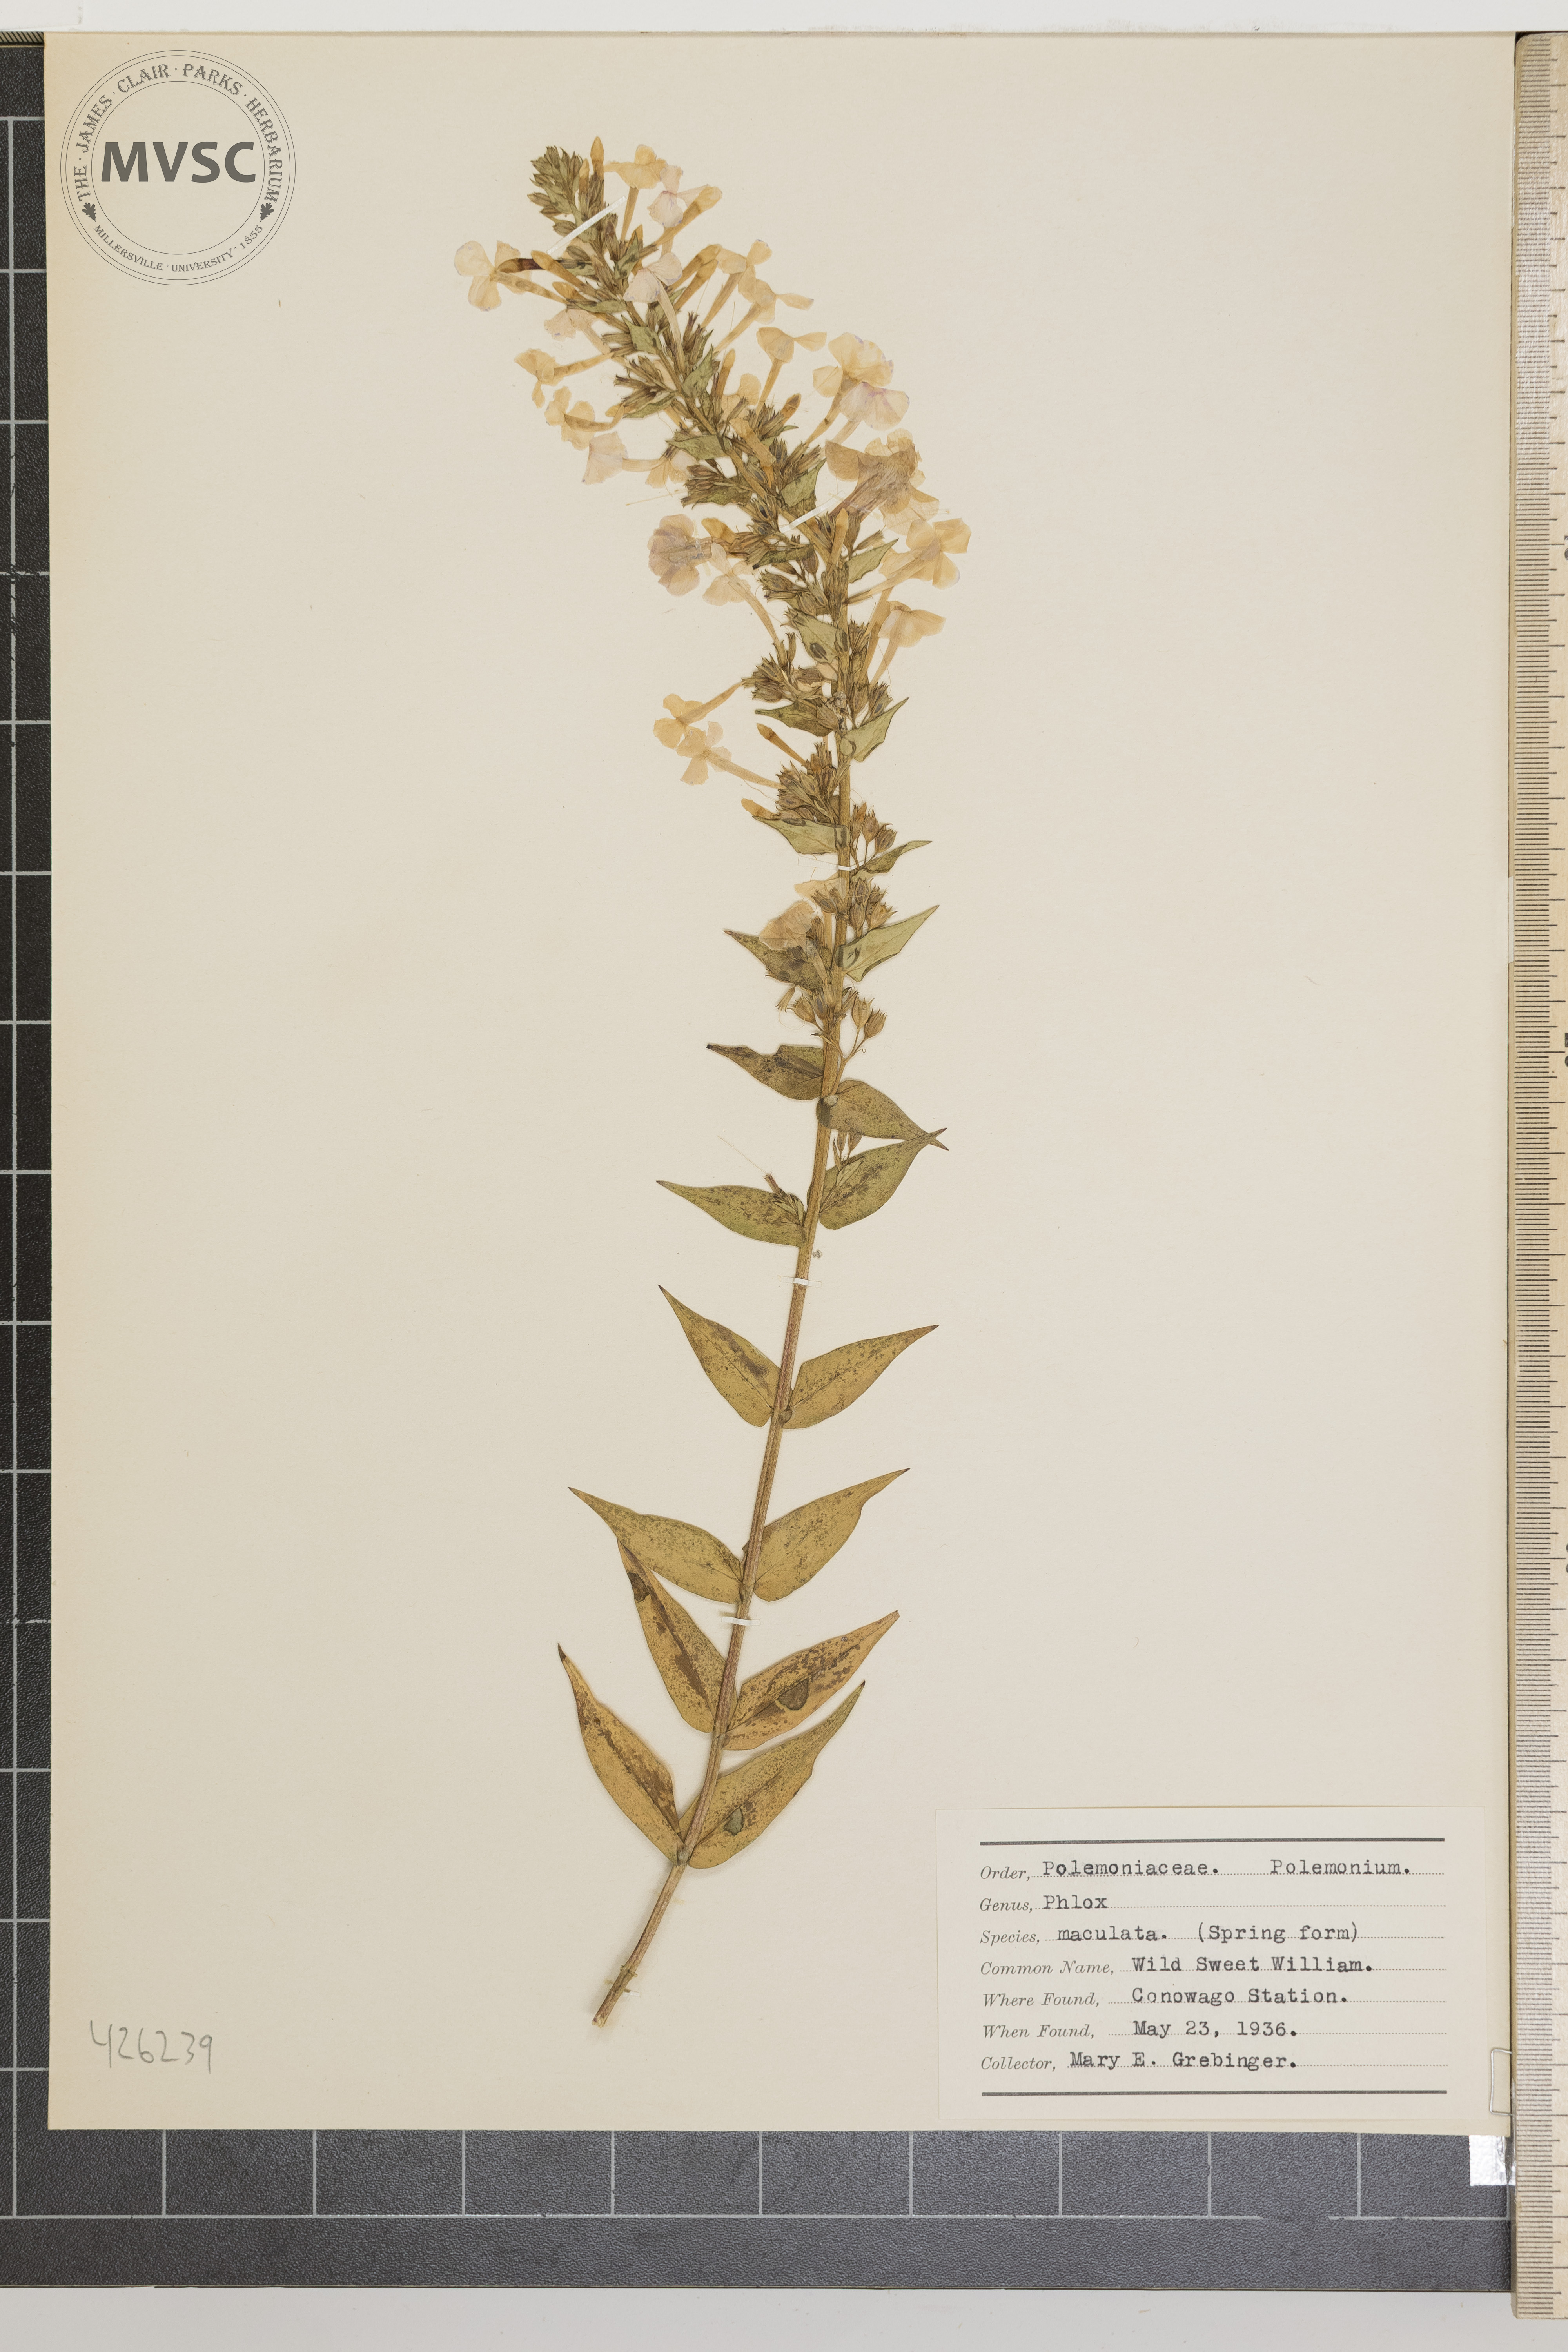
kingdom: Plantae
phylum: Tracheophyta
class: Magnoliopsida
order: Ericales
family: Polemoniaceae
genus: Phlox
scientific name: Phlox maculata
